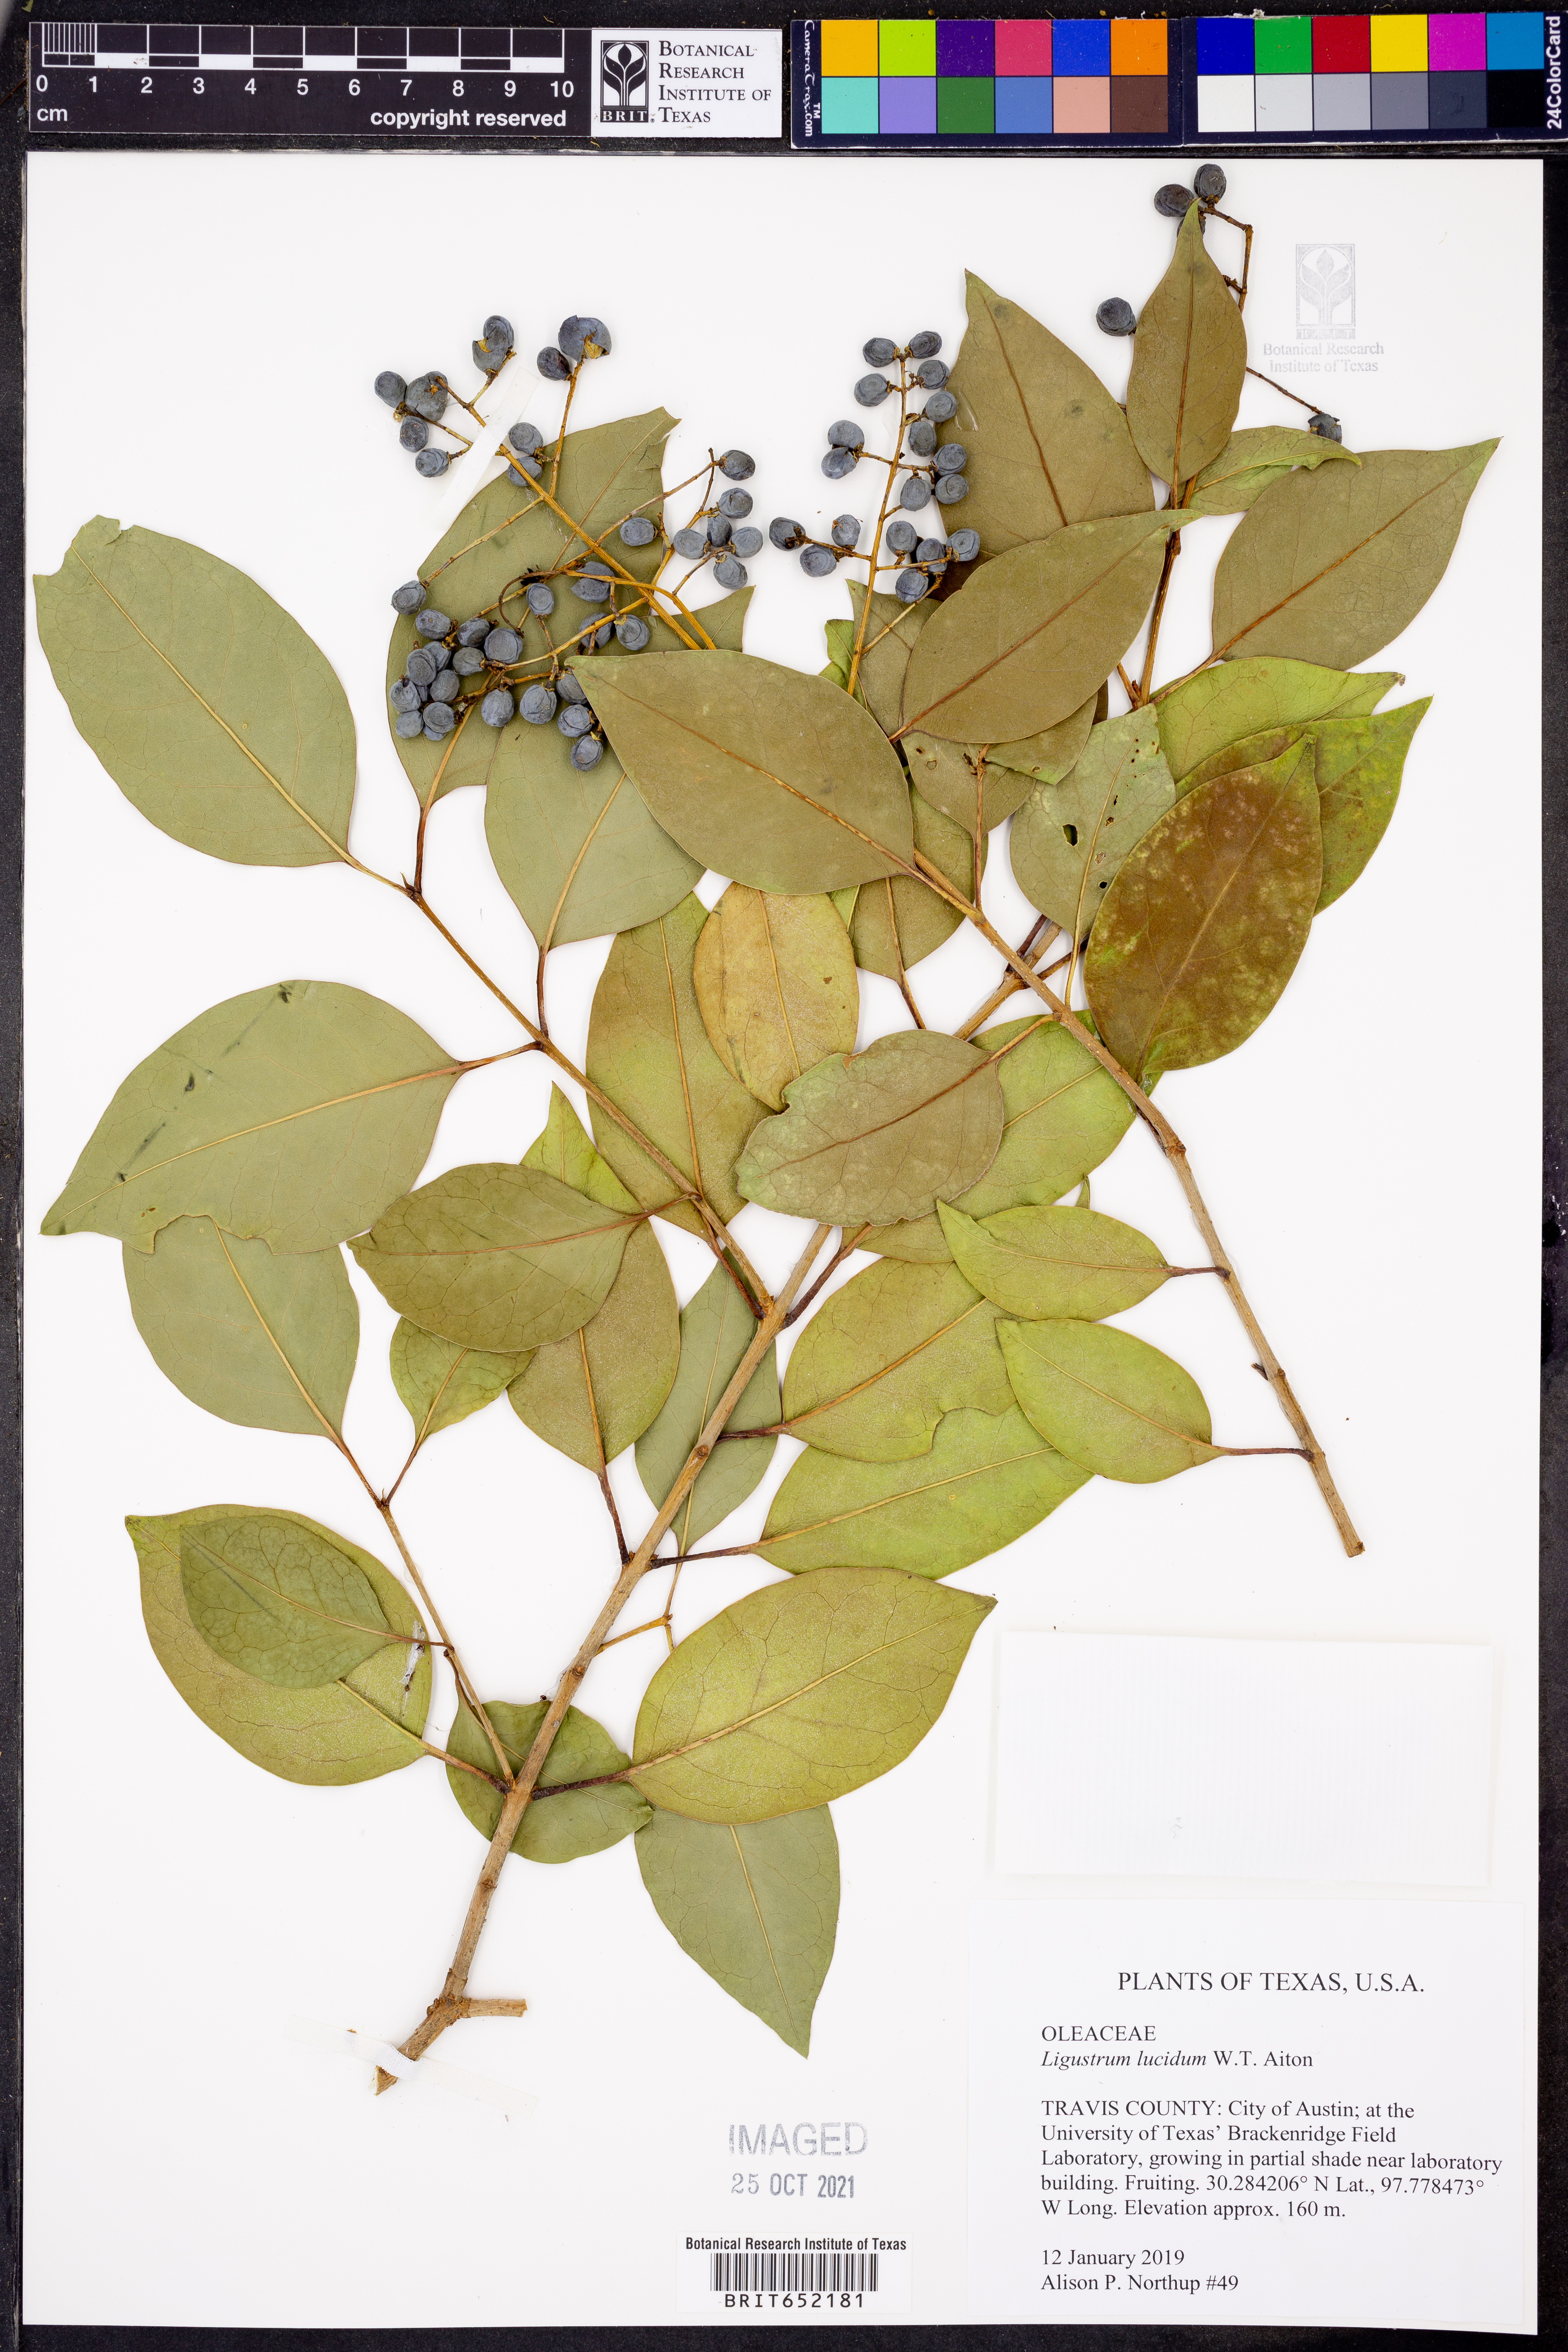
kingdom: Plantae
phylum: Tracheophyta
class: Magnoliopsida
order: Lamiales
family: Oleaceae
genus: Ligustrum
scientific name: Ligustrum lucidum
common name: Glossy privet
